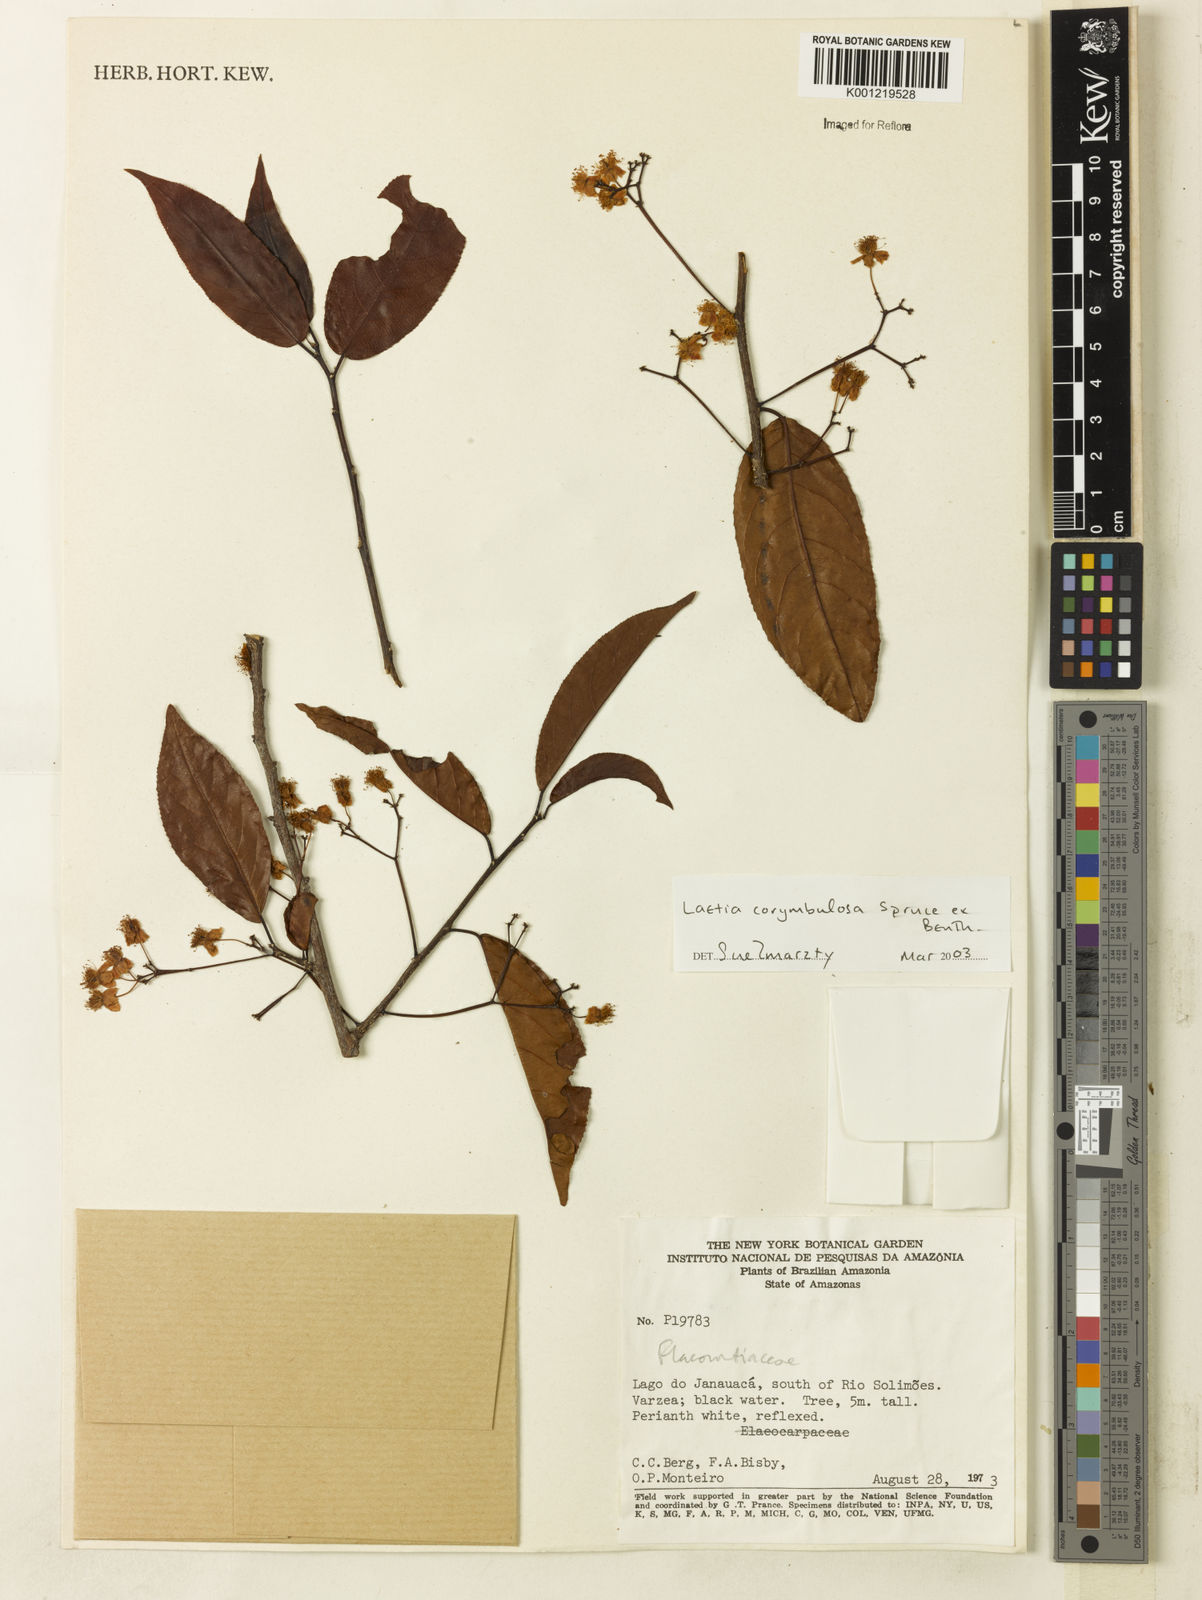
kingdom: Plantae
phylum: Tracheophyta
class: Magnoliopsida
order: Malpighiales
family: Salicaceae
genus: Casearia
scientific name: Casearia corymbulosa
